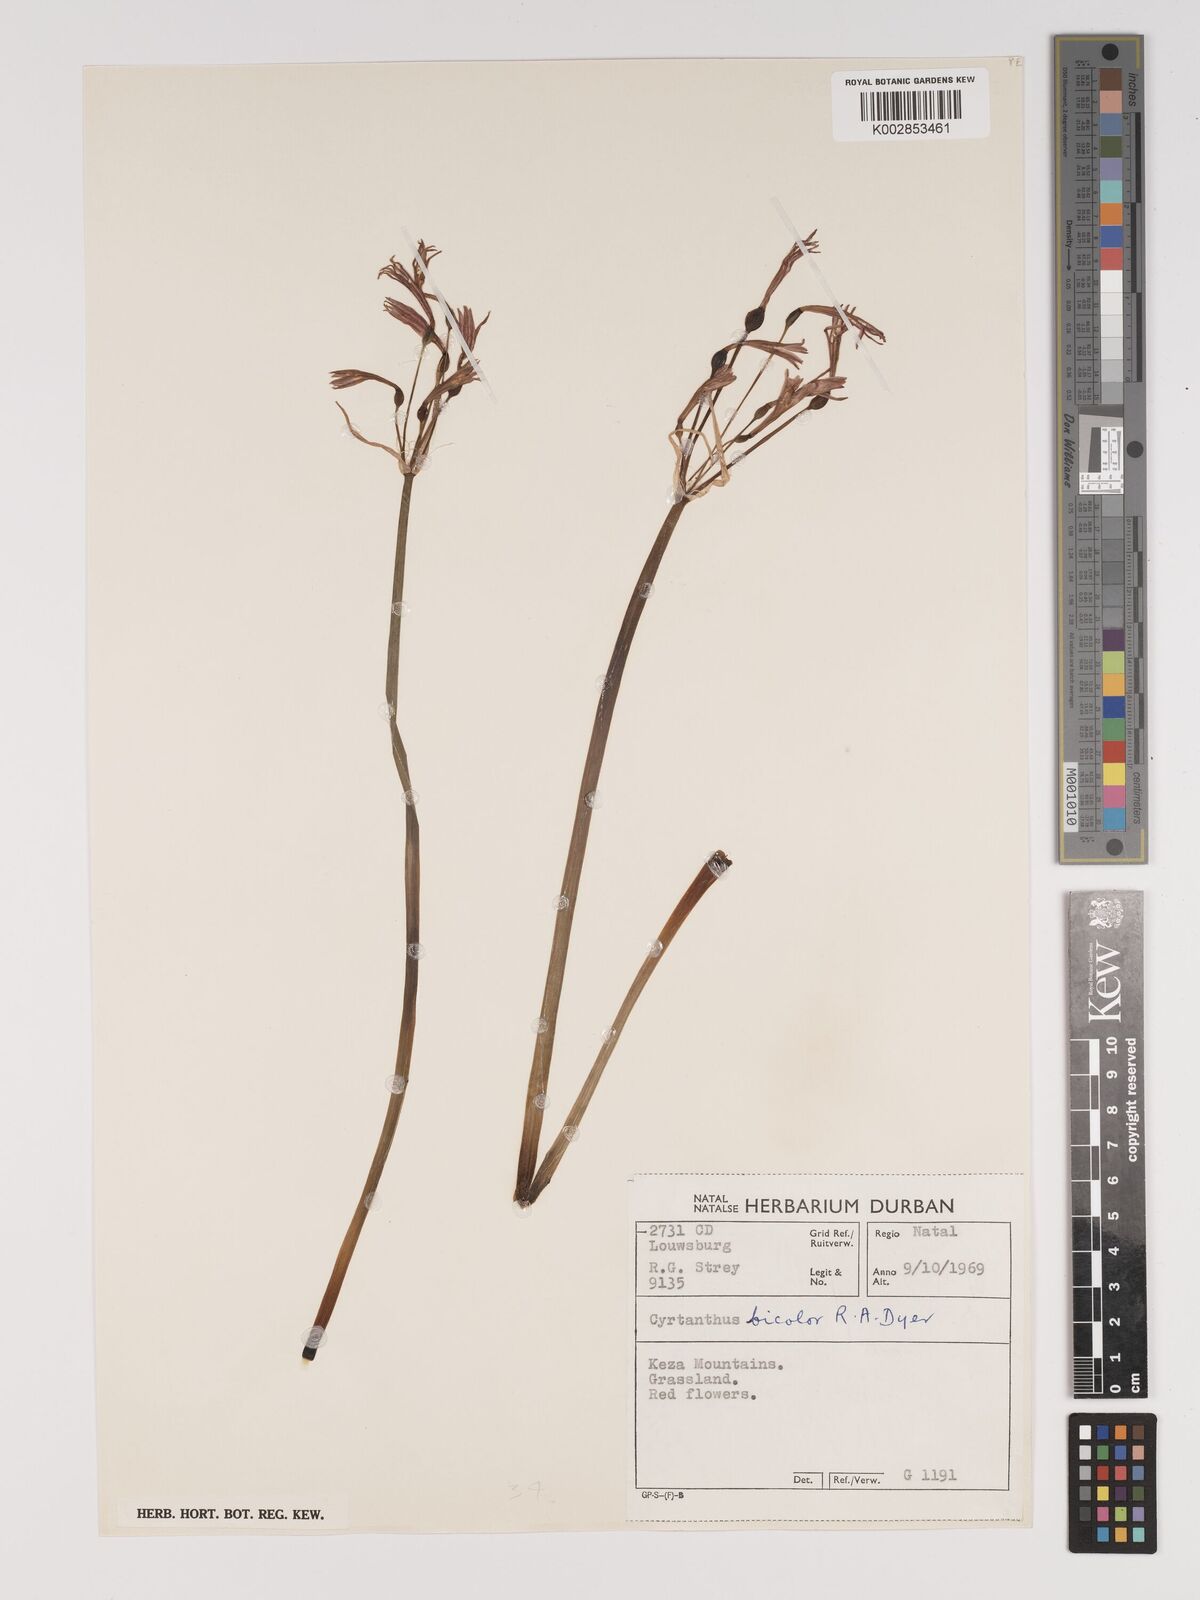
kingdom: Plantae
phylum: Tracheophyta
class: Liliopsida
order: Asparagales
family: Amaryllidaceae
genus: Cyrtanthus
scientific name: Cyrtanthus bicolor
